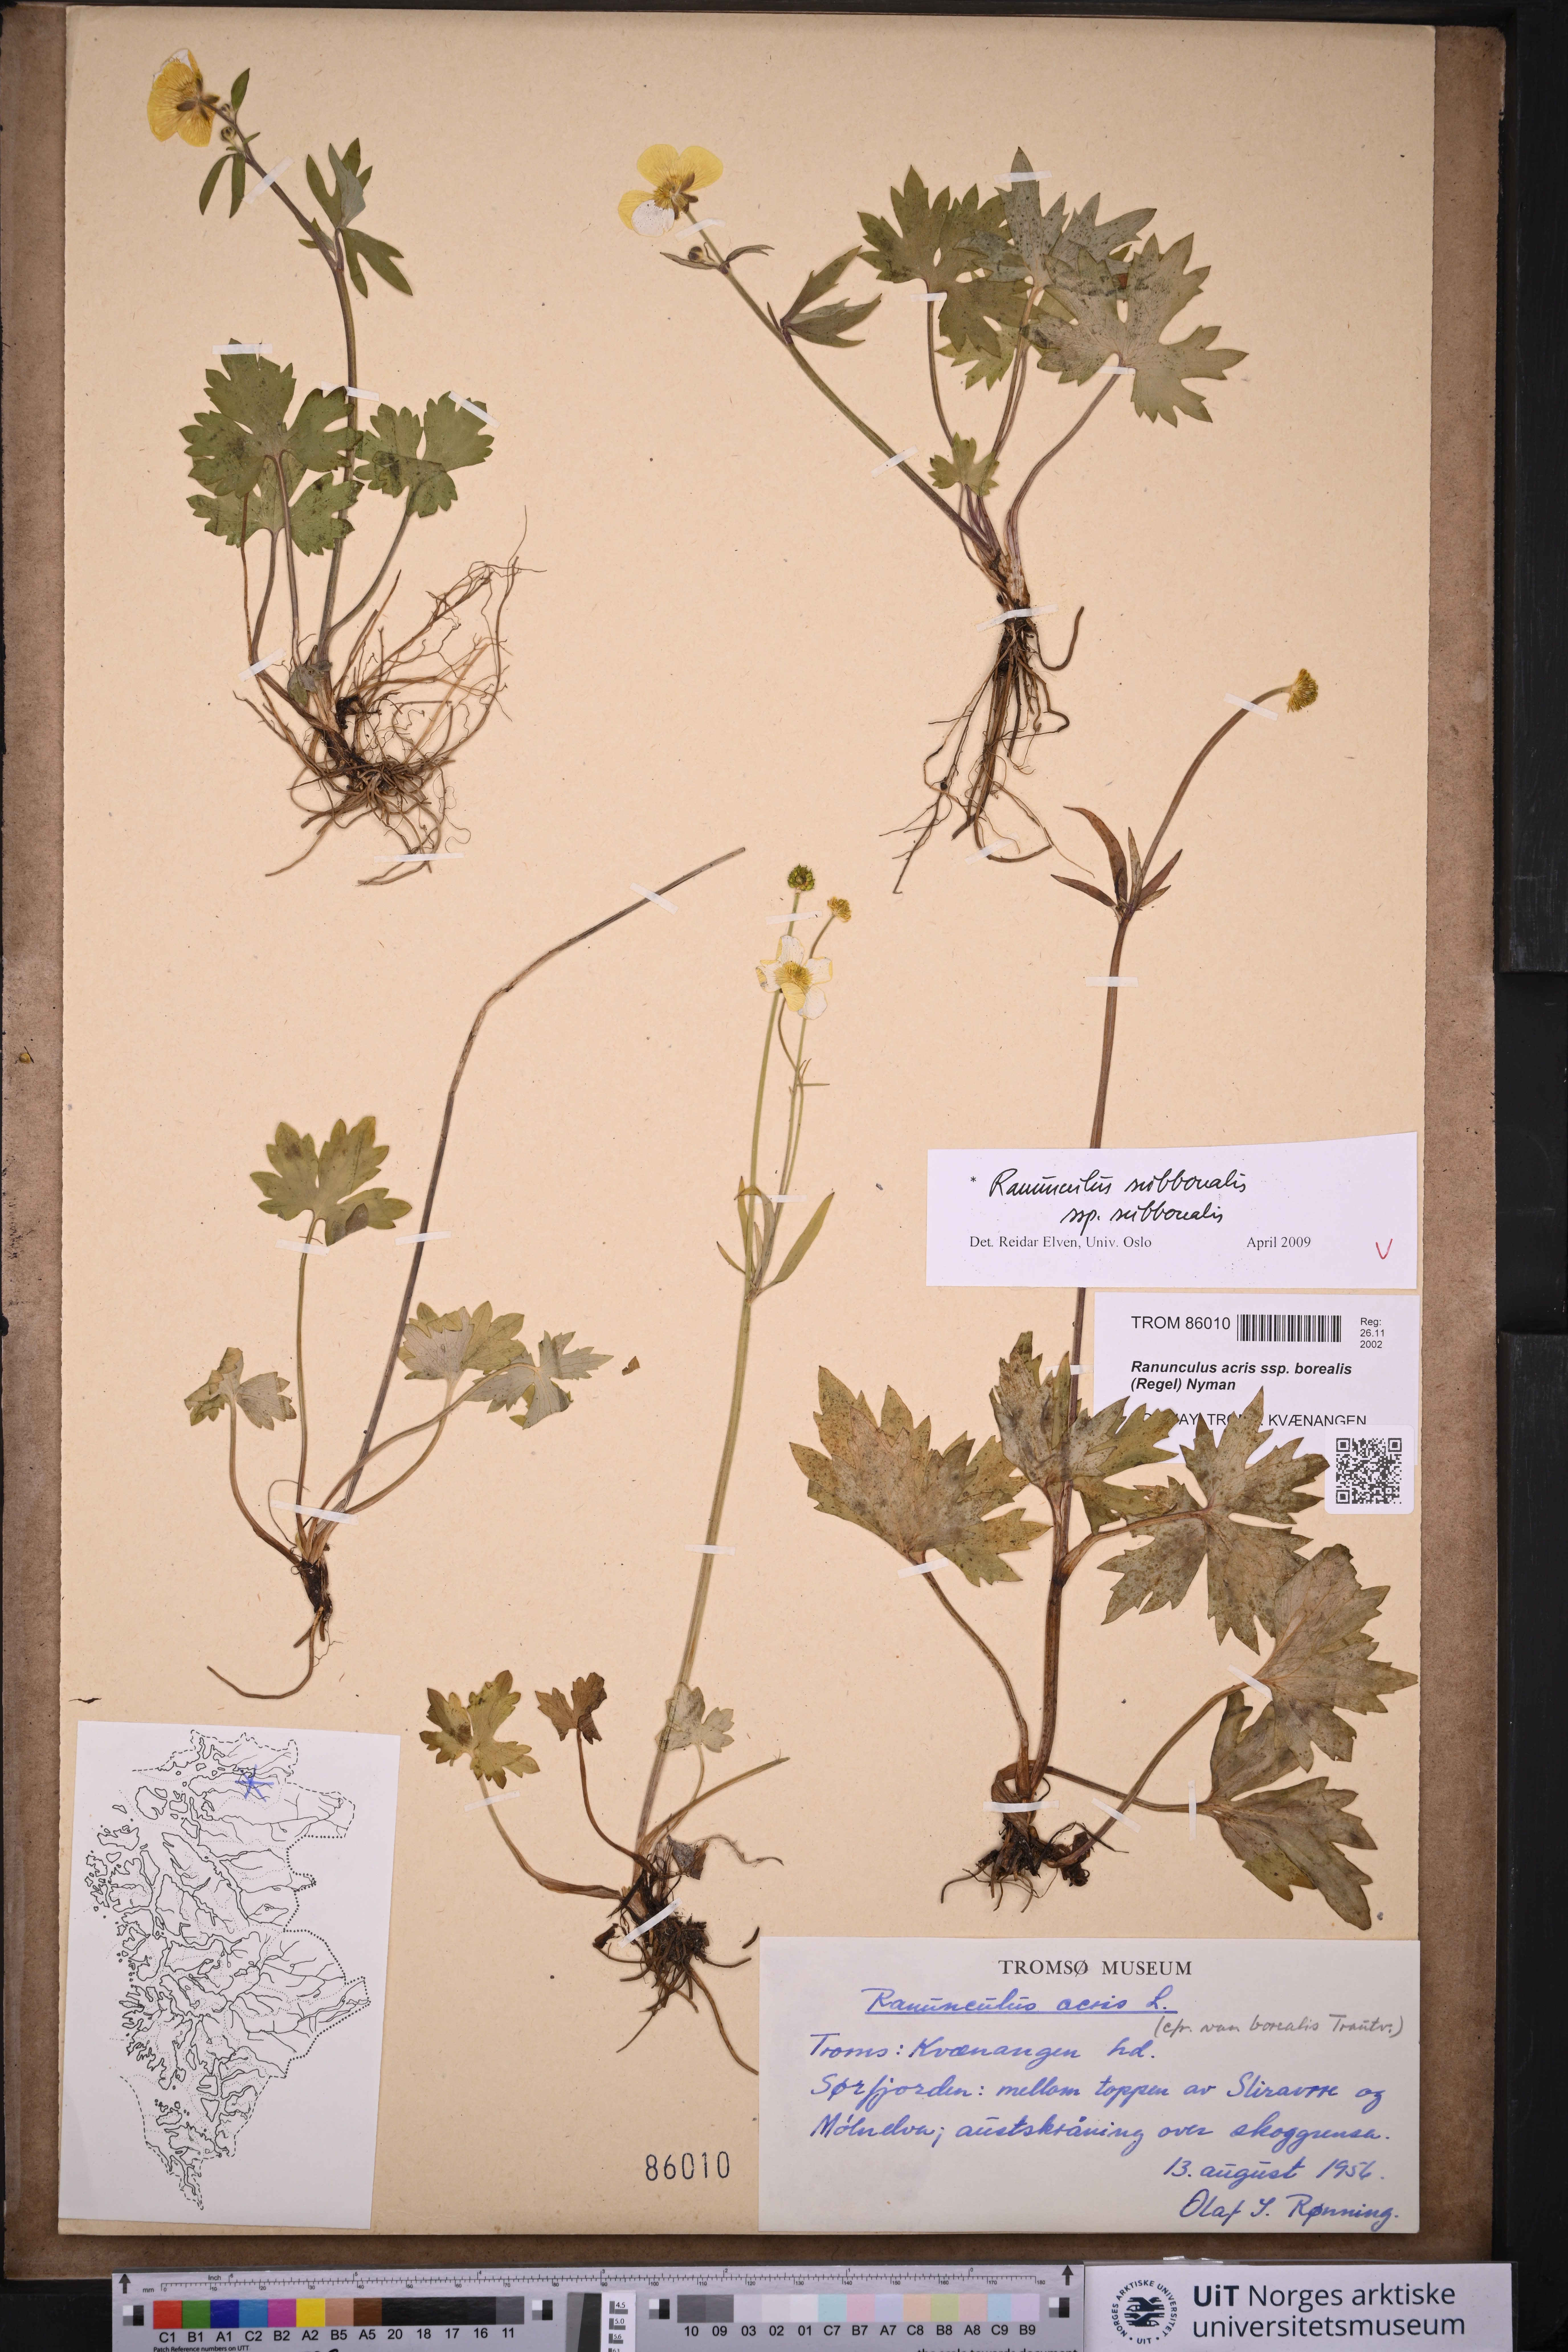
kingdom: Plantae
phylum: Tracheophyta
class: Magnoliopsida
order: Ranunculales
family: Ranunculaceae
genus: Ranunculus
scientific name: Ranunculus propinquus
